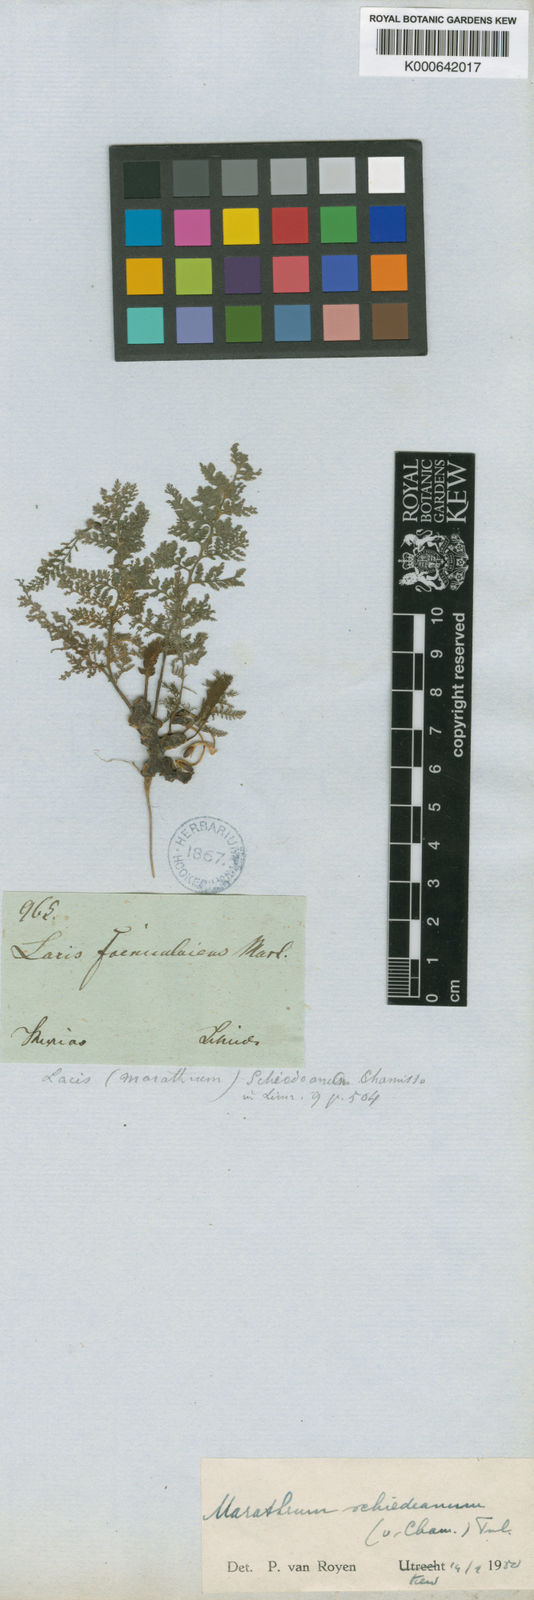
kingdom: Plantae
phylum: Tracheophyta
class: Magnoliopsida
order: Malpighiales
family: Podostemaceae
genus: Marathrum
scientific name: Marathrum foeniculaceum
